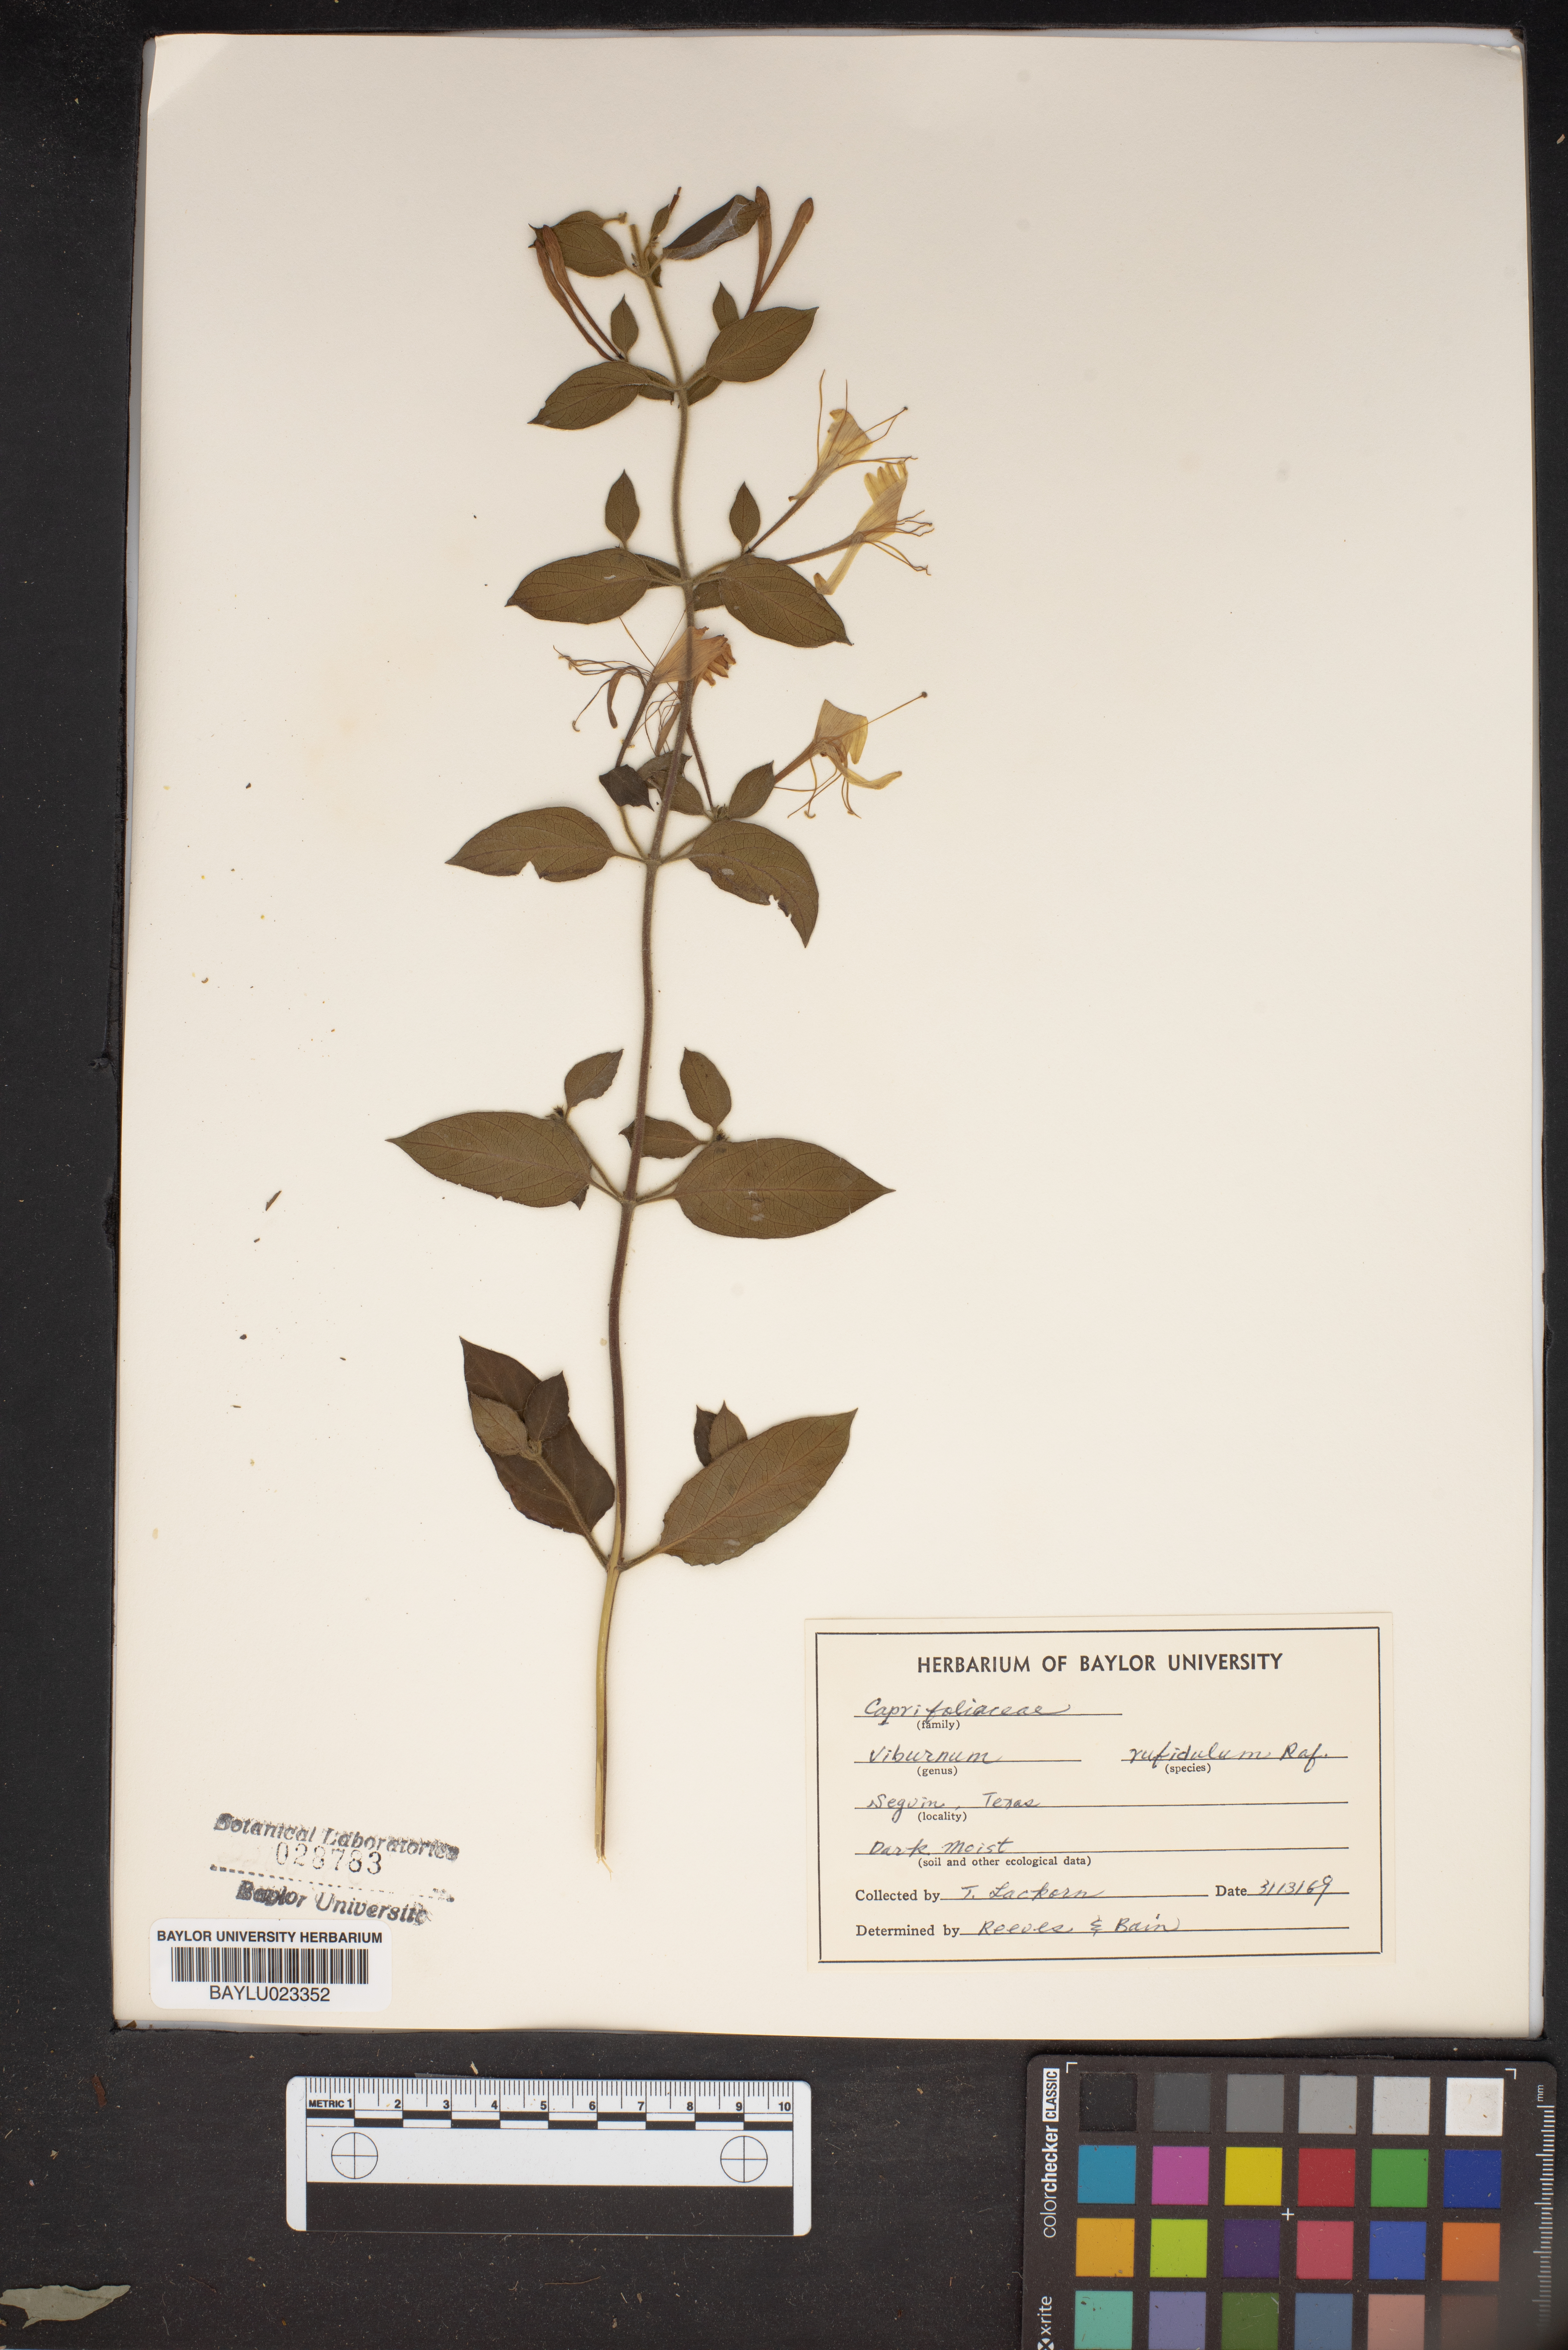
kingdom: Plantae
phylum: Tracheophyta
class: Magnoliopsida
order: Dipsacales
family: Viburnaceae
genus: Viburnum
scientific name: Viburnum rufidulum
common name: Blue haw
